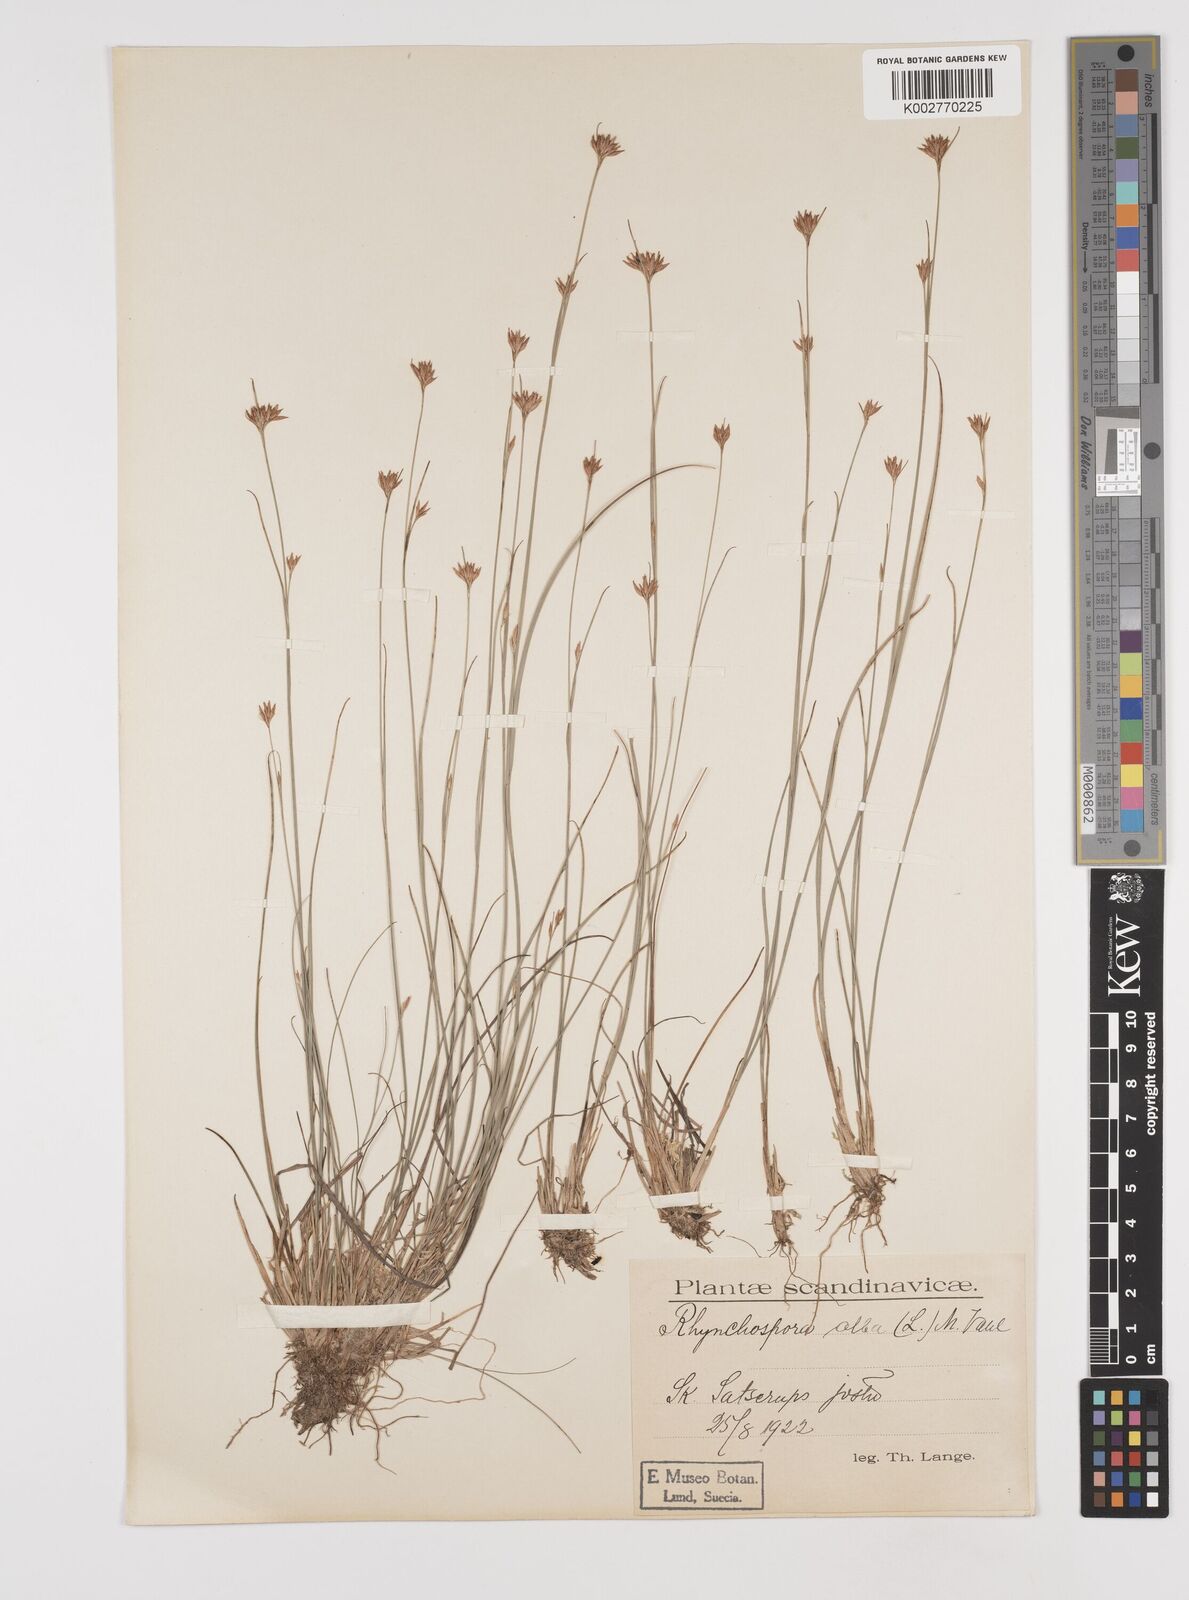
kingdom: Plantae
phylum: Tracheophyta
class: Liliopsida
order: Poales
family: Cyperaceae
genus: Rhynchospora
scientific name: Rhynchospora alba
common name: White beak-sedge
